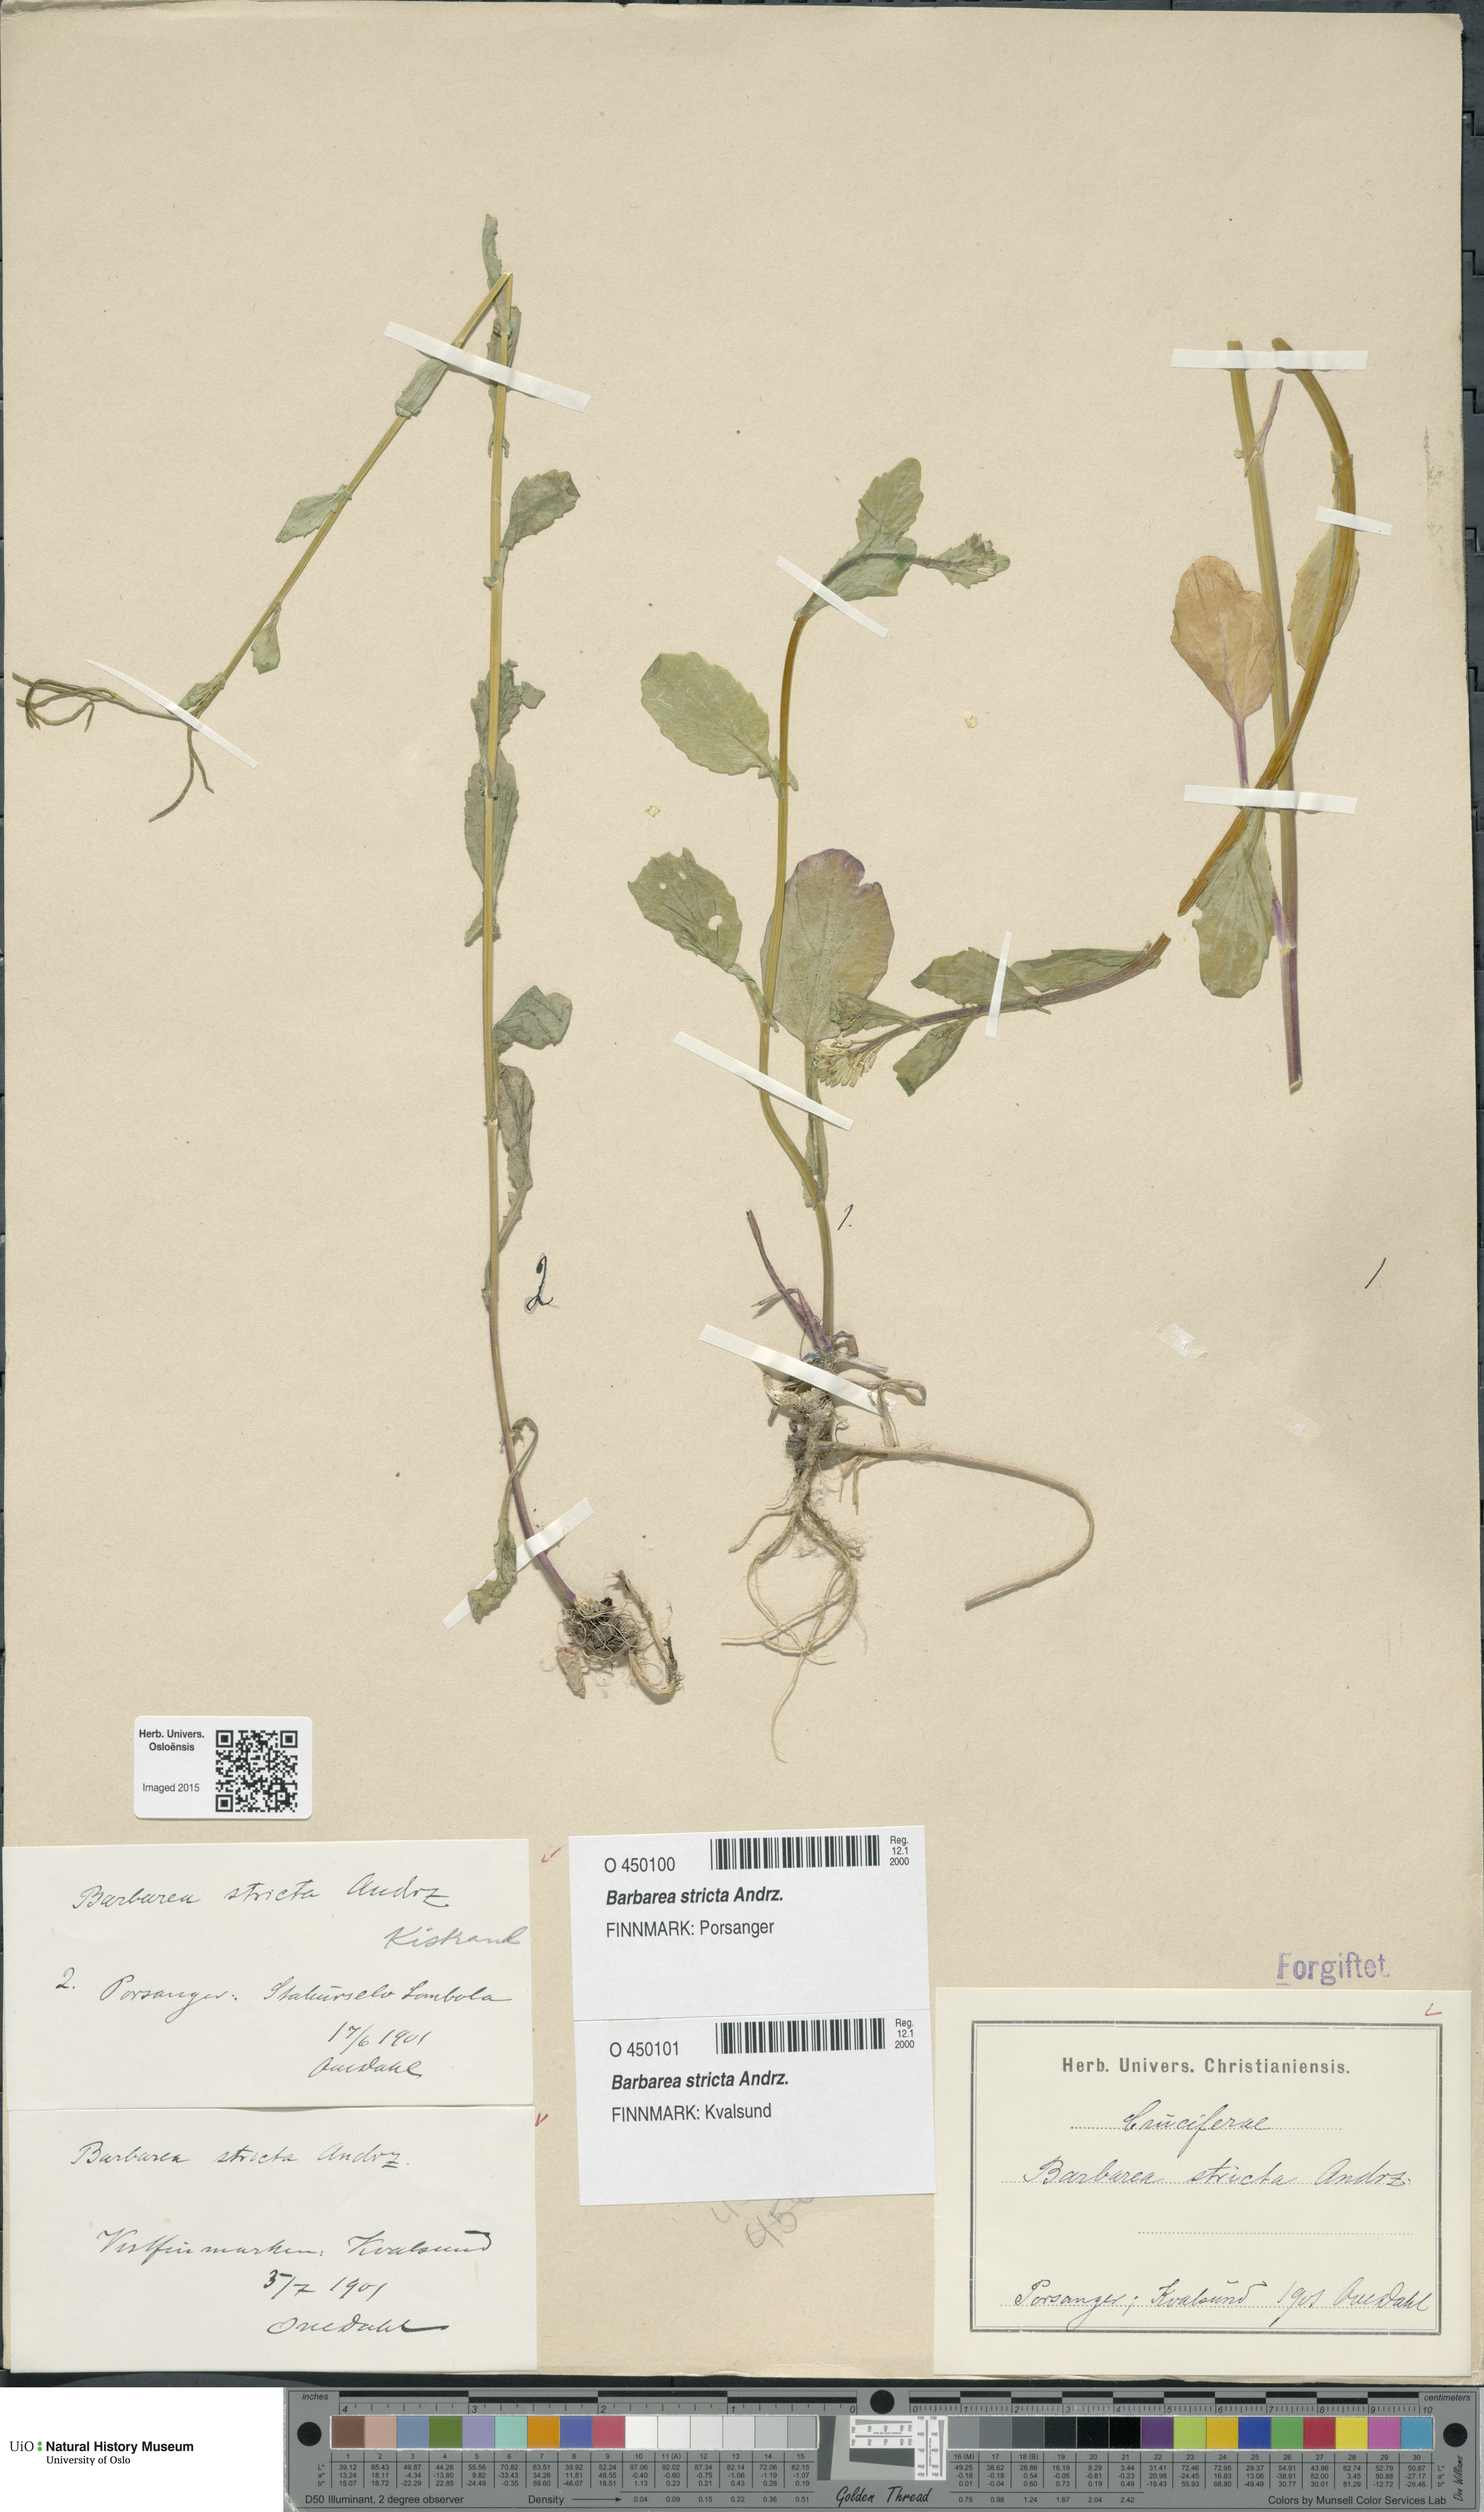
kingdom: Plantae
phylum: Tracheophyta
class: Magnoliopsida
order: Brassicales
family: Brassicaceae
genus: Barbarea
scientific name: Barbarea stricta
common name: Small-flowered winter-cress
